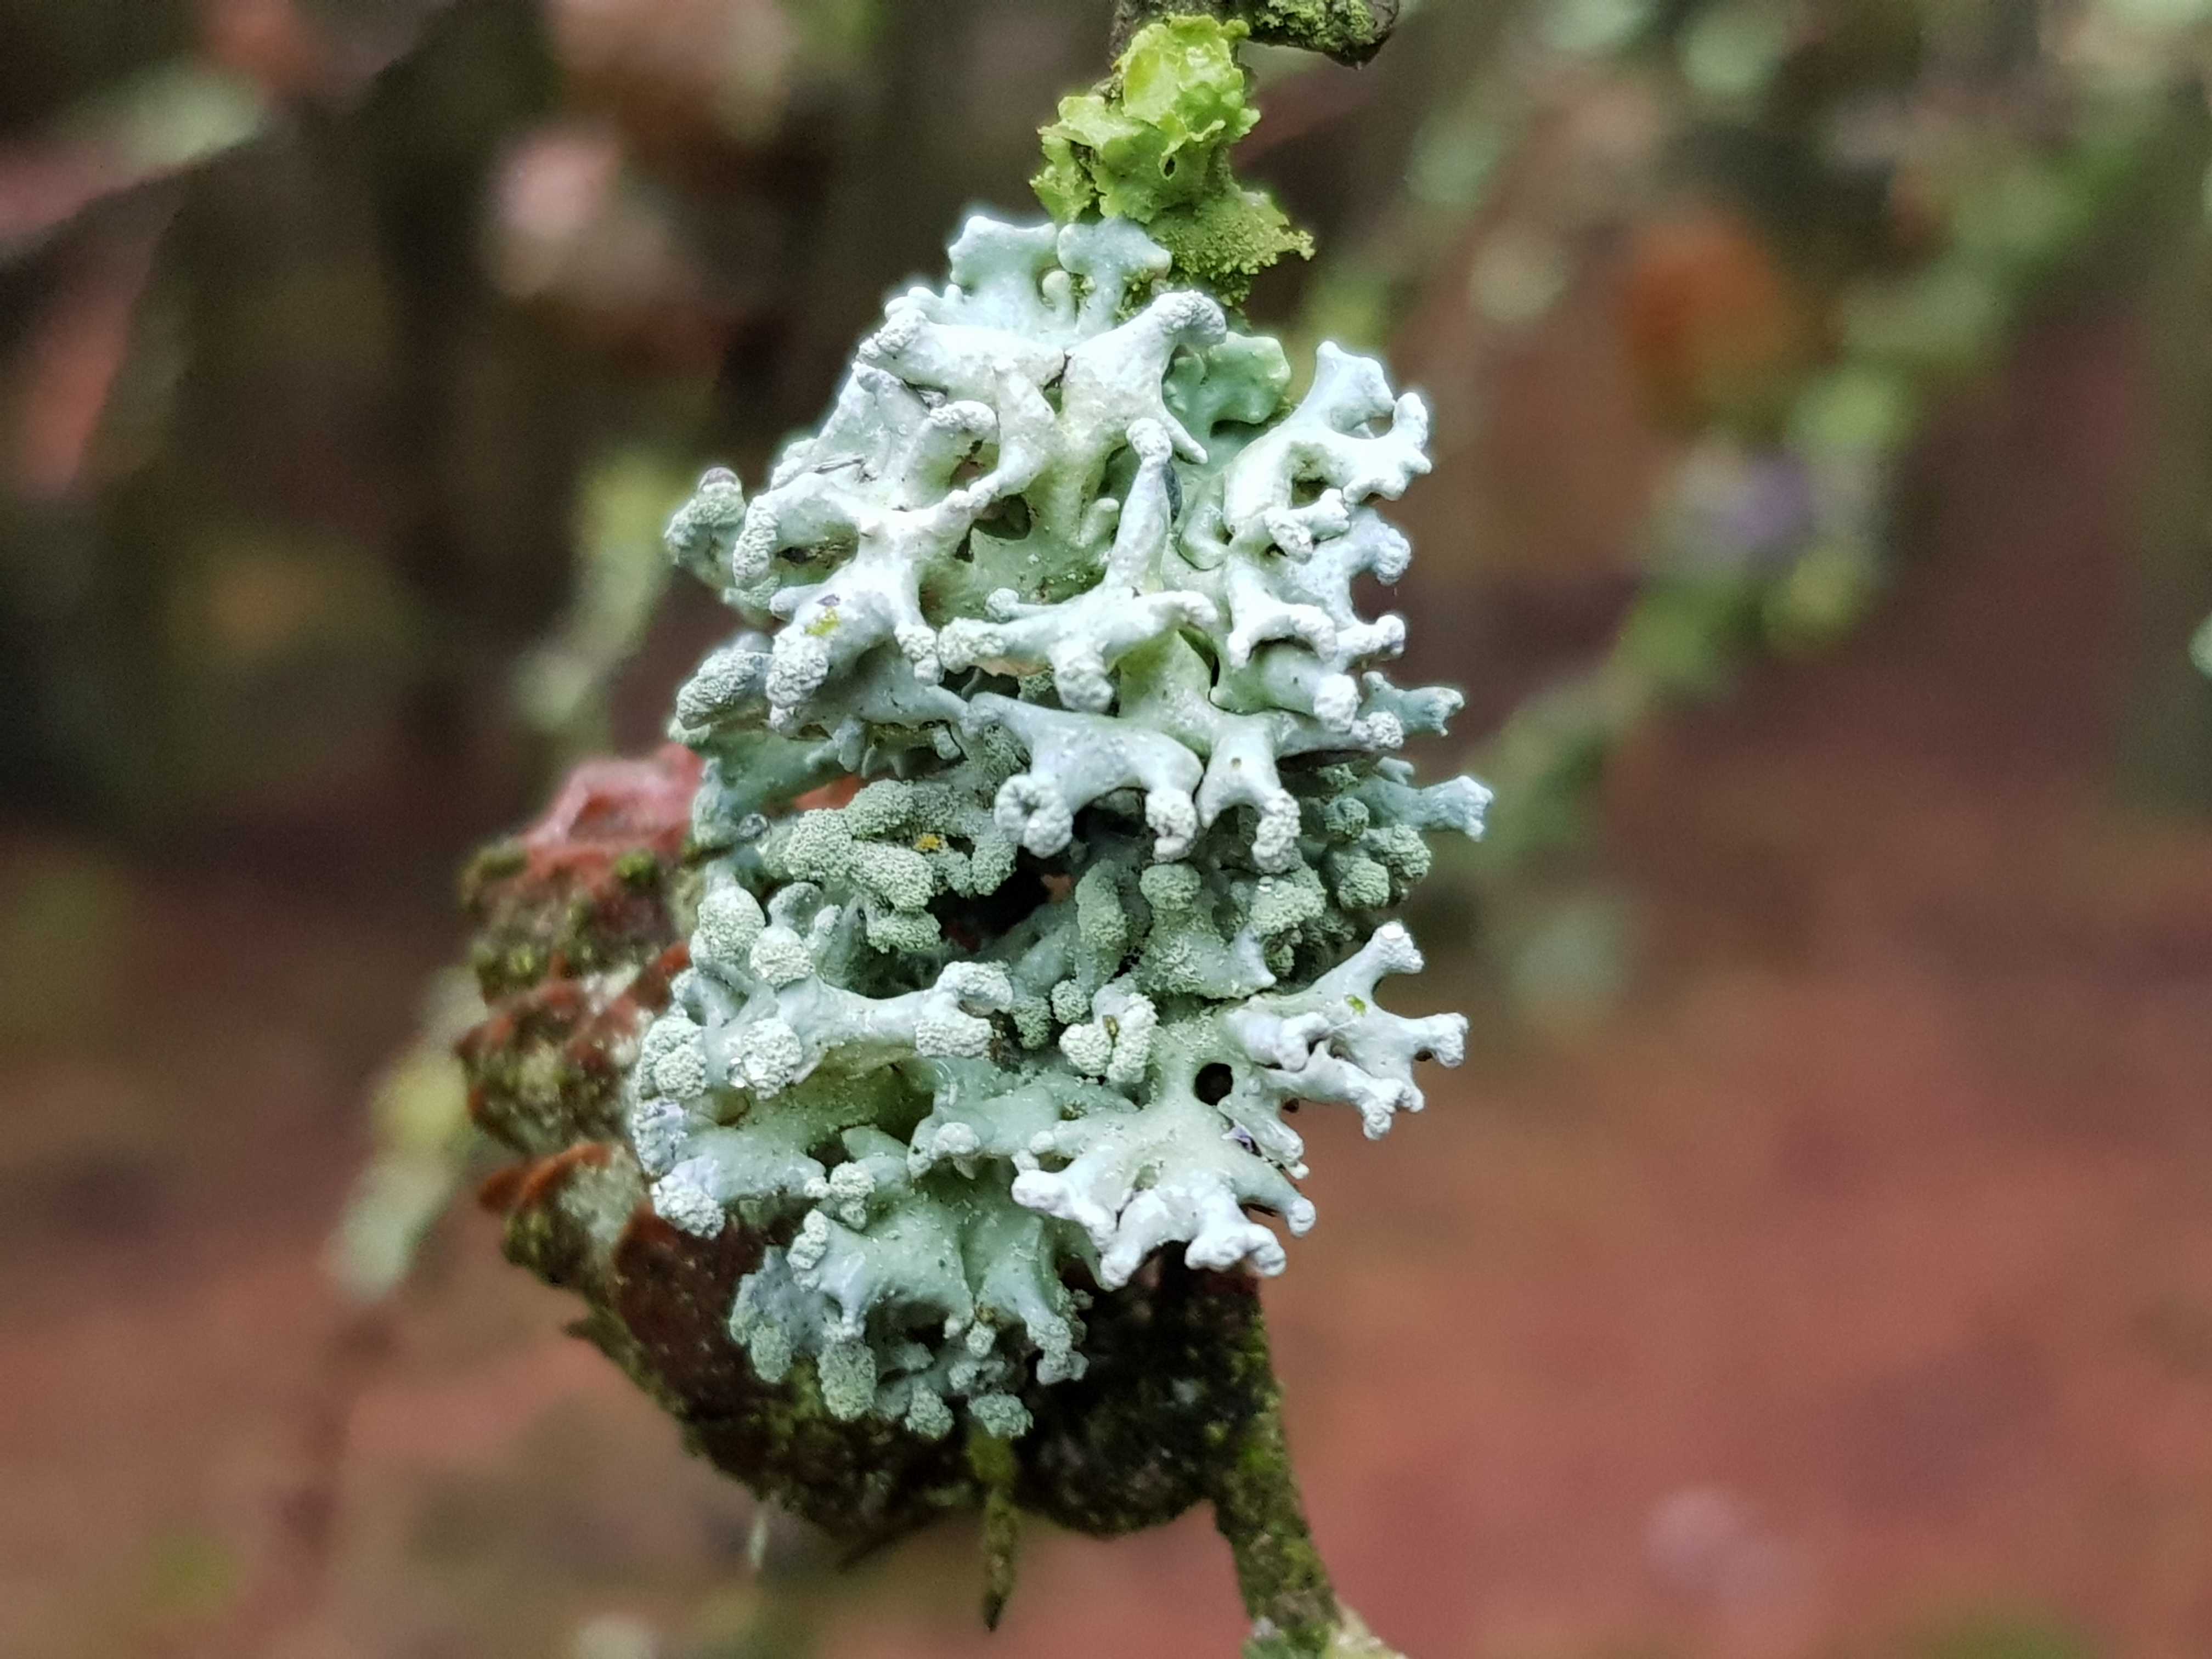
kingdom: Fungi
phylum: Ascomycota
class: Lecanoromycetes
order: Lecanorales
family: Parmeliaceae
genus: Hypogymnia
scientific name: Hypogymnia tubulosa
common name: finger-kvistlav
